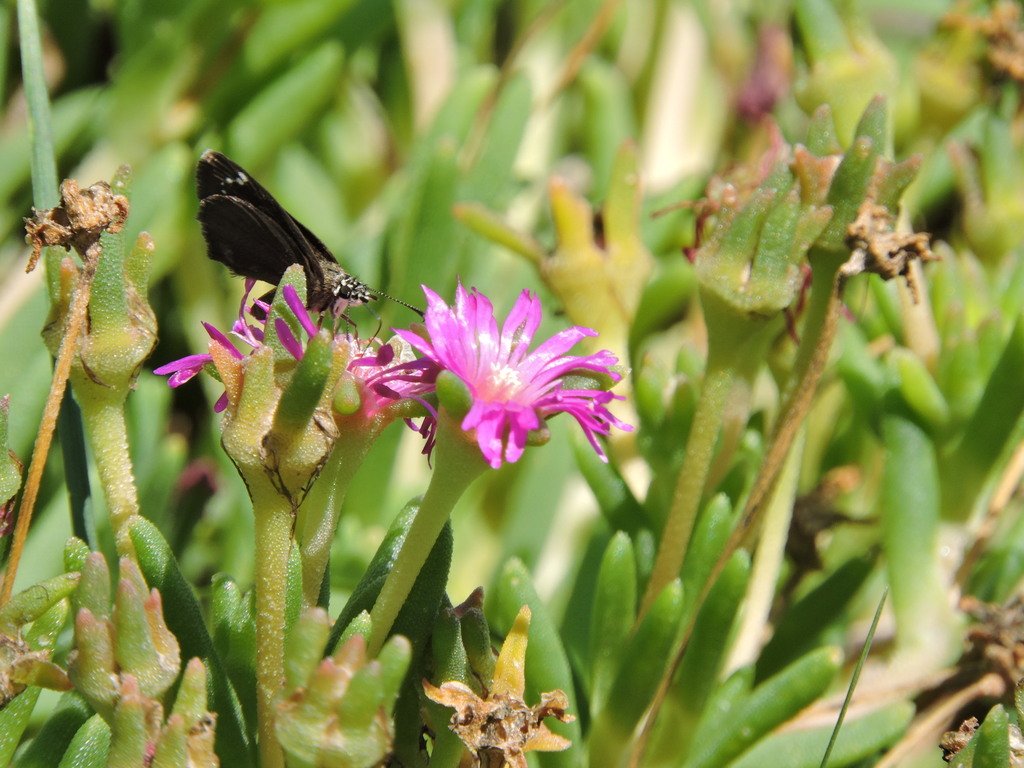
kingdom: Animalia
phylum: Arthropoda
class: Insecta
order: Lepidoptera
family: Hesperiidae
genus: Pholisora
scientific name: Pholisora catullus
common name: Common Sootywing
